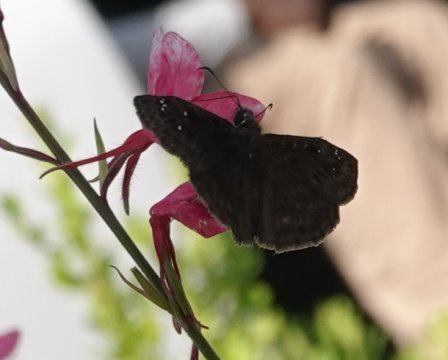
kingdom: Animalia
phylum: Arthropoda
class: Insecta
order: Lepidoptera
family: Hesperiidae
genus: Gesta
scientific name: Gesta
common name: Horace's Duskywing
